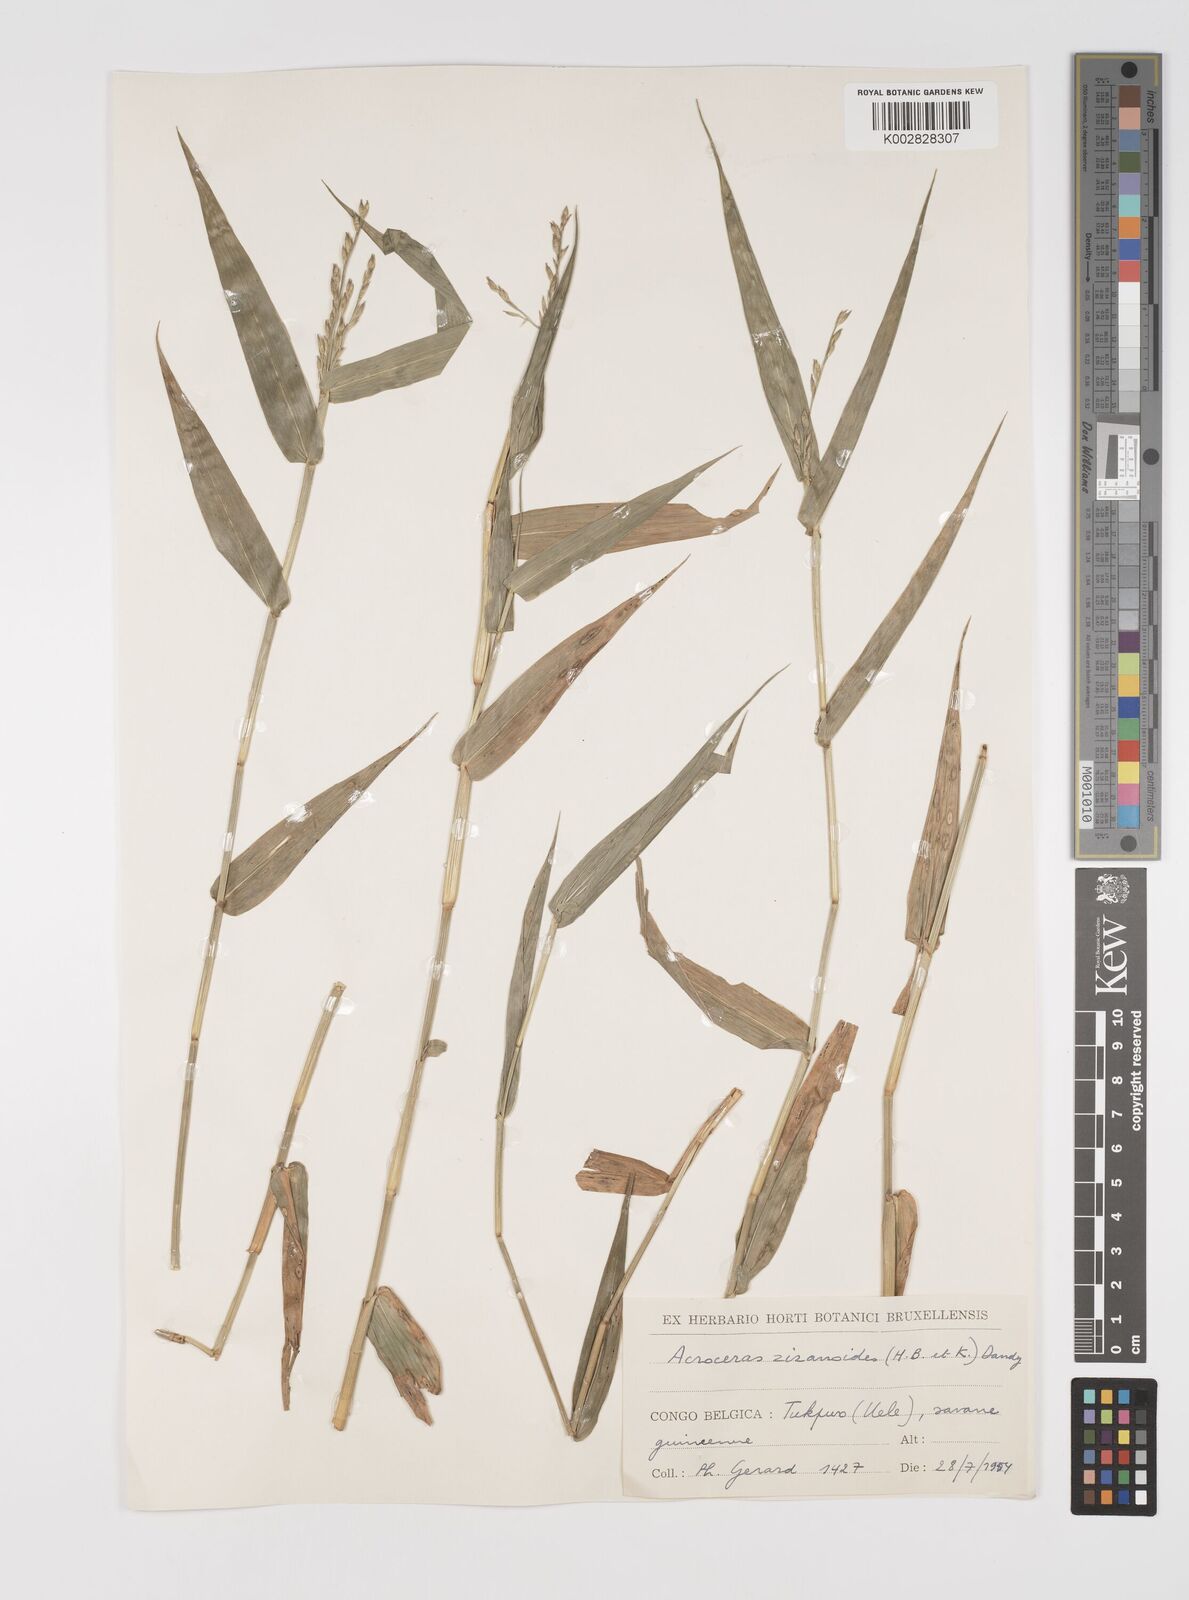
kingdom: Plantae
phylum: Tracheophyta
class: Liliopsida
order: Poales
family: Poaceae
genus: Acroceras
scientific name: Acroceras zizanioides
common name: Oat grass
